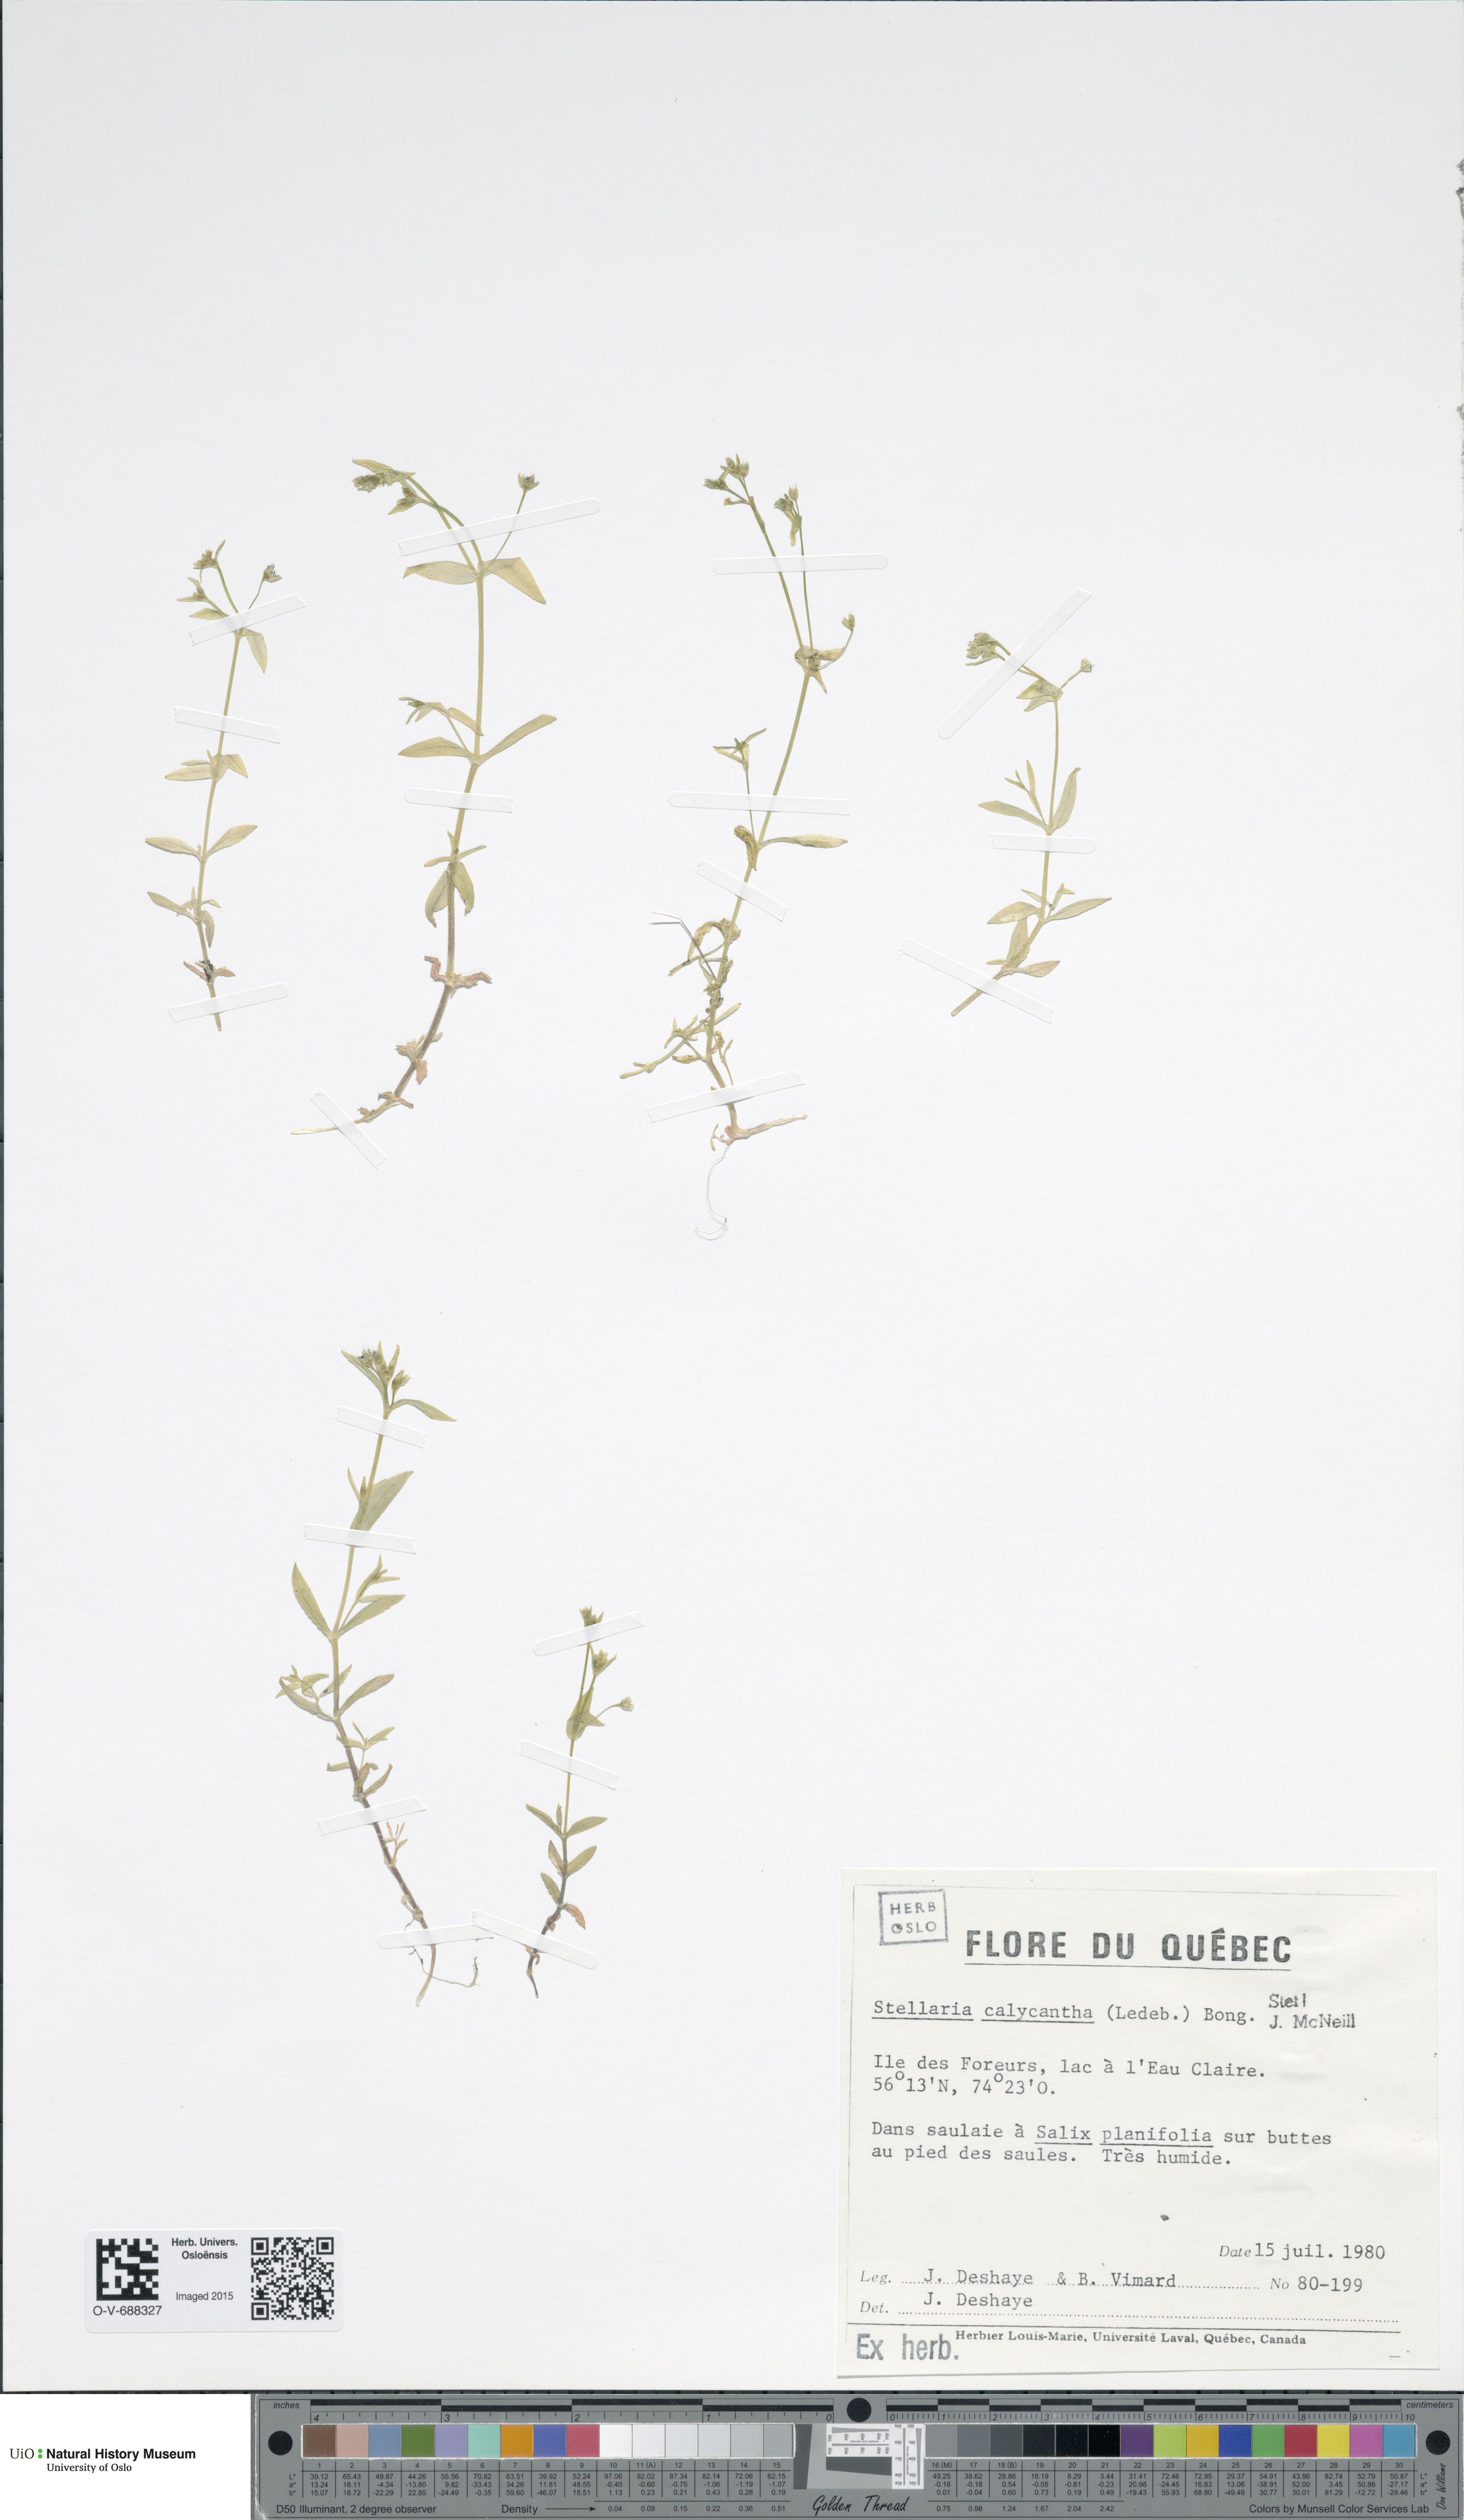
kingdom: Plantae
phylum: Tracheophyta
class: Magnoliopsida
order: Caryophyllales
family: Caryophyllaceae
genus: Stellaria
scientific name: Stellaria borealis
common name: Boreal starwort
